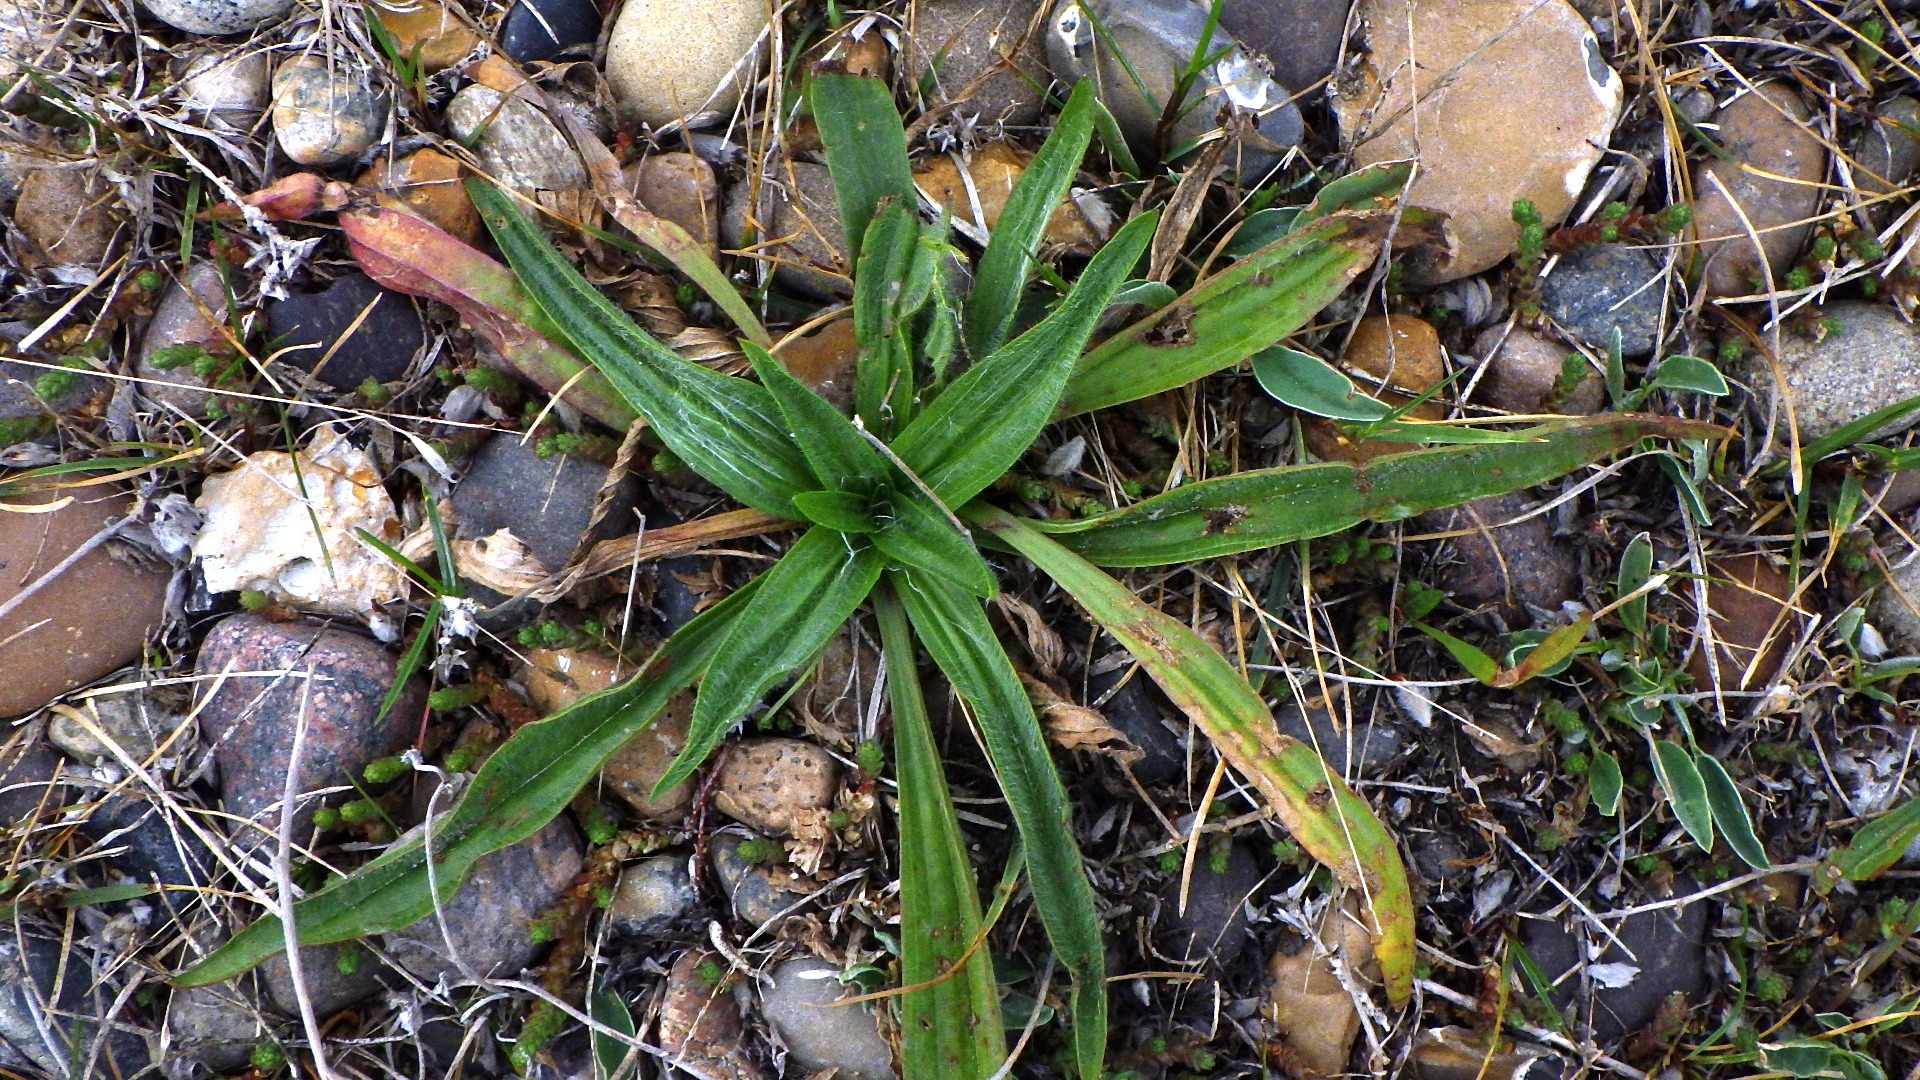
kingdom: Plantae
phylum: Tracheophyta
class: Magnoliopsida
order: Lamiales
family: Plantaginaceae
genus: Plantago
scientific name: Plantago lanceolata
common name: Lancet-vejbred
